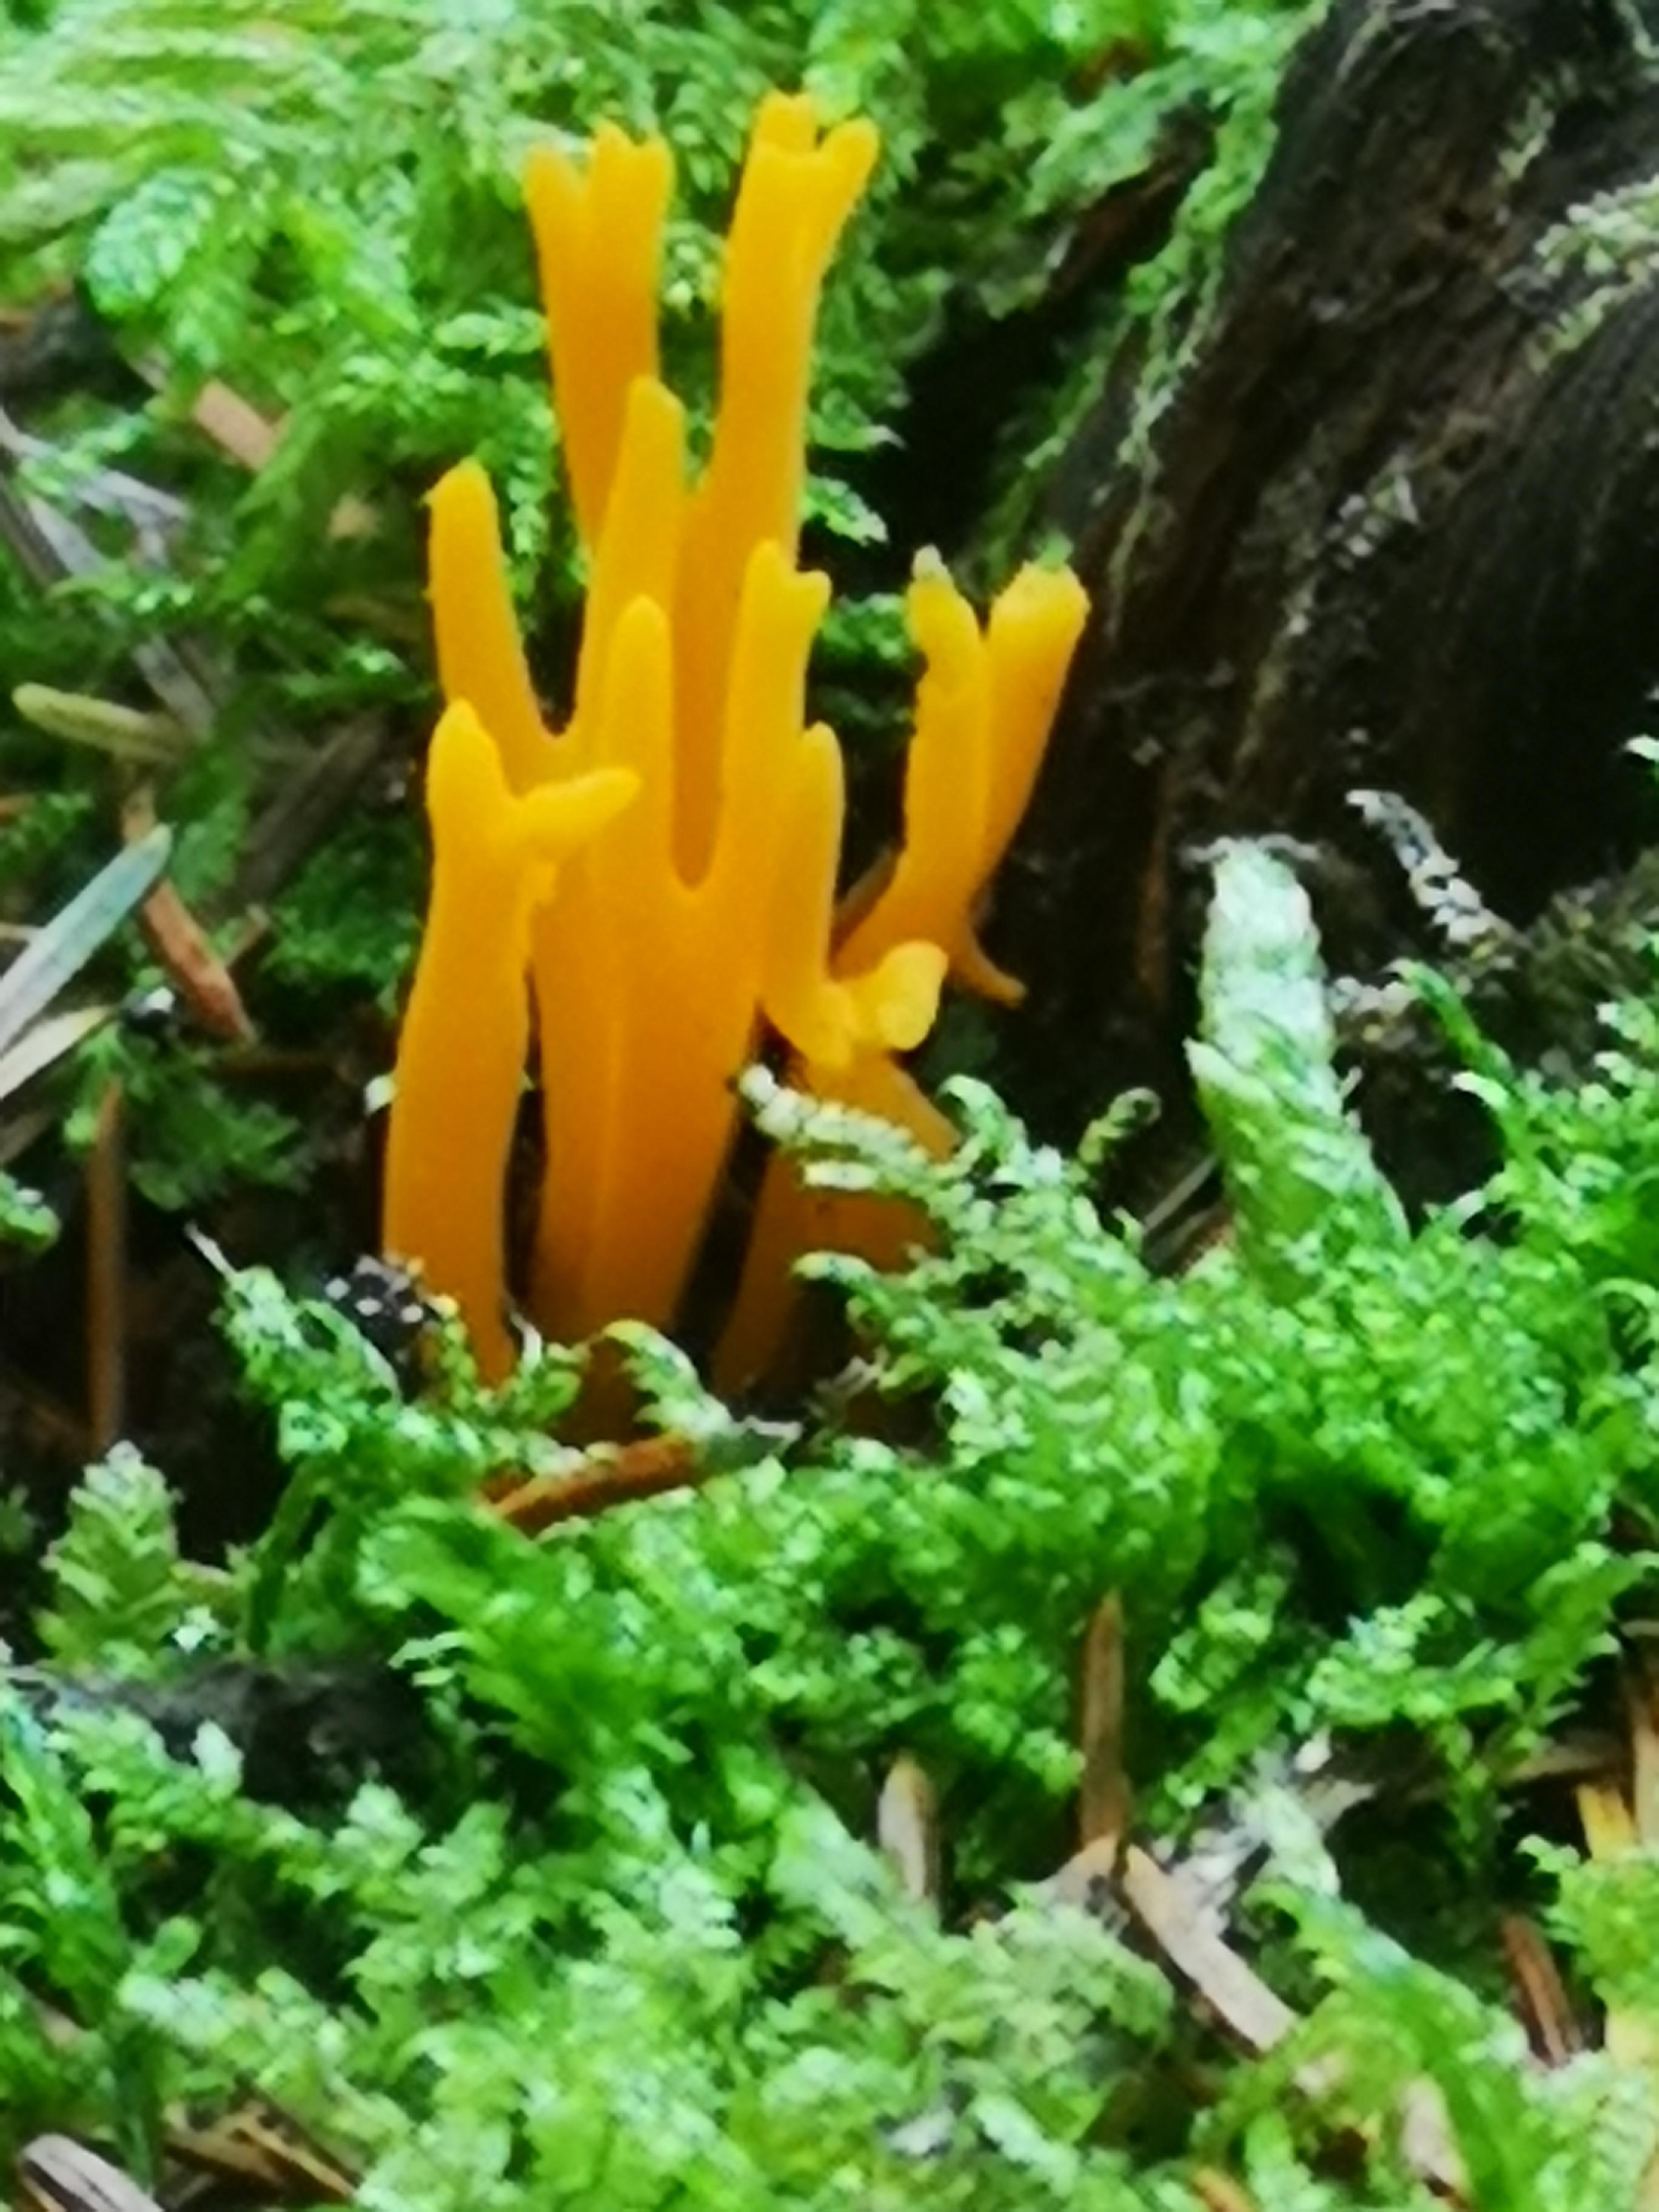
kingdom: Fungi
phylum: Basidiomycota
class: Dacrymycetes
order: Dacrymycetales
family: Dacrymycetaceae
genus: Calocera
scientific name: Calocera viscosa
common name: almindelig guldgaffel
